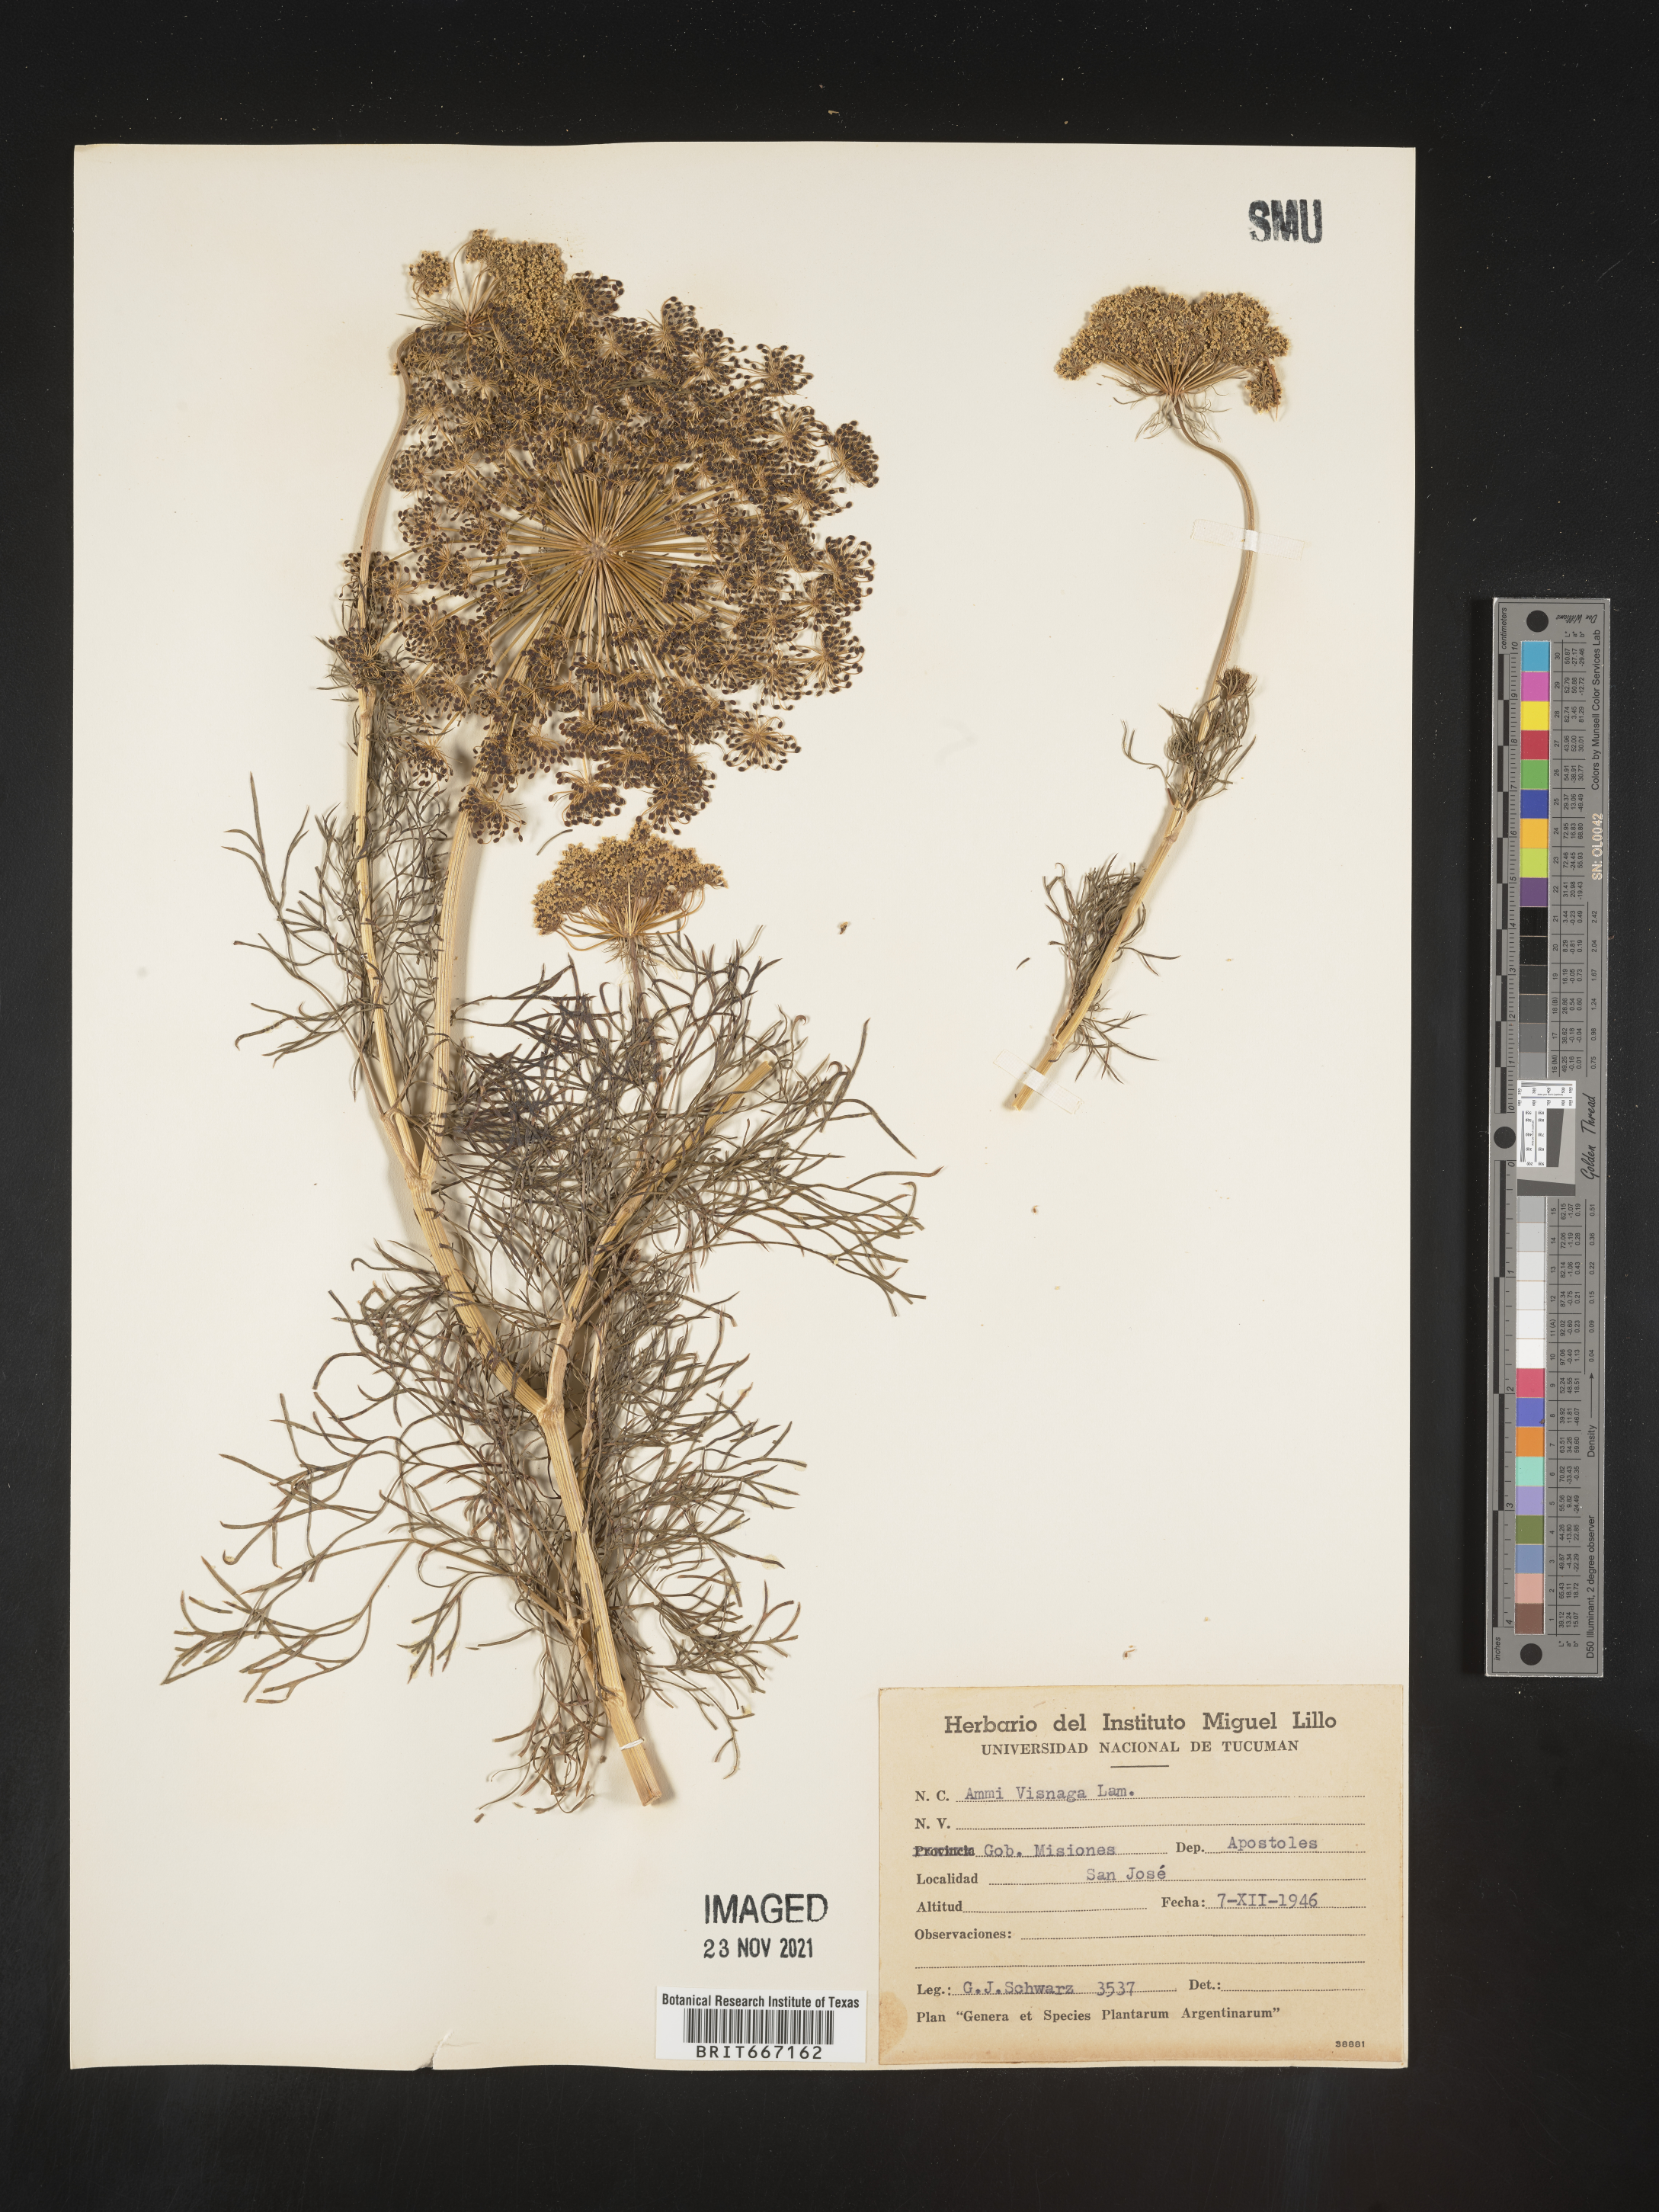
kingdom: Plantae
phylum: Tracheophyta
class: Magnoliopsida
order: Apiales
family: Apiaceae
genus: Ammi
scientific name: Ammi
